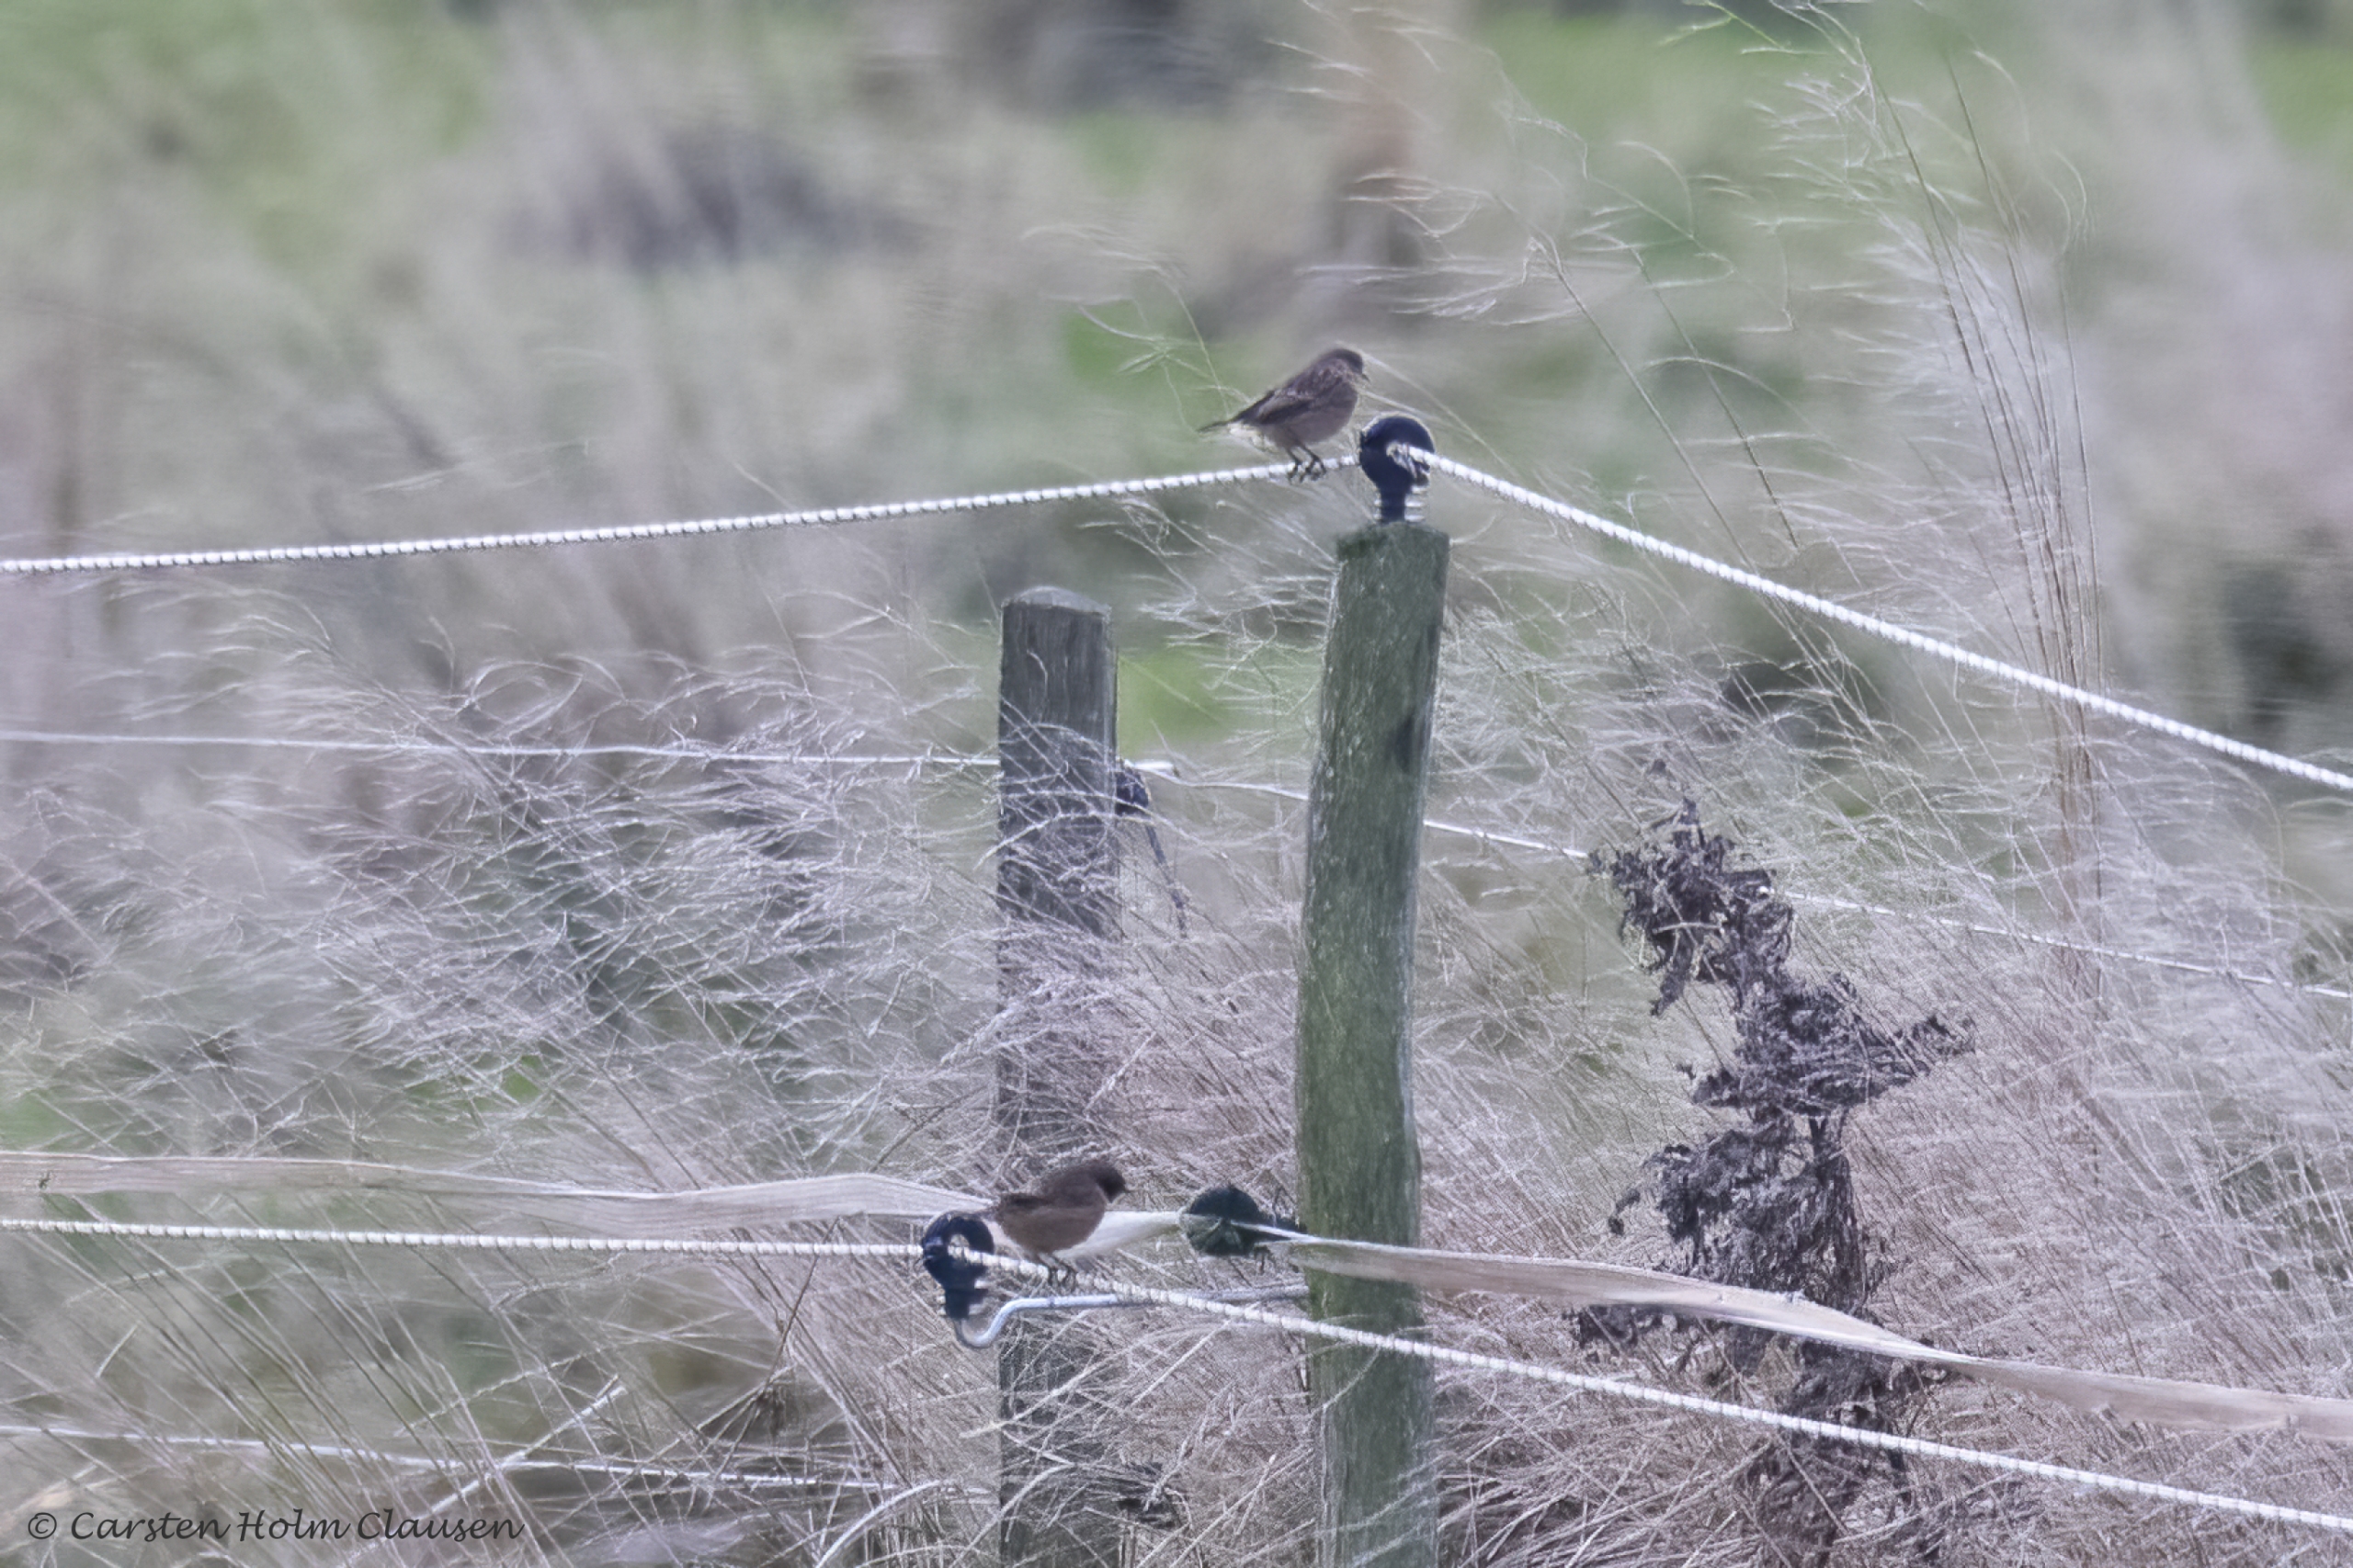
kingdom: Animalia
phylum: Chordata
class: Aves
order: Passeriformes
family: Muscicapidae
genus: Saxicola
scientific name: Saxicola rubicola
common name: Sortstrubet bynkefugl
